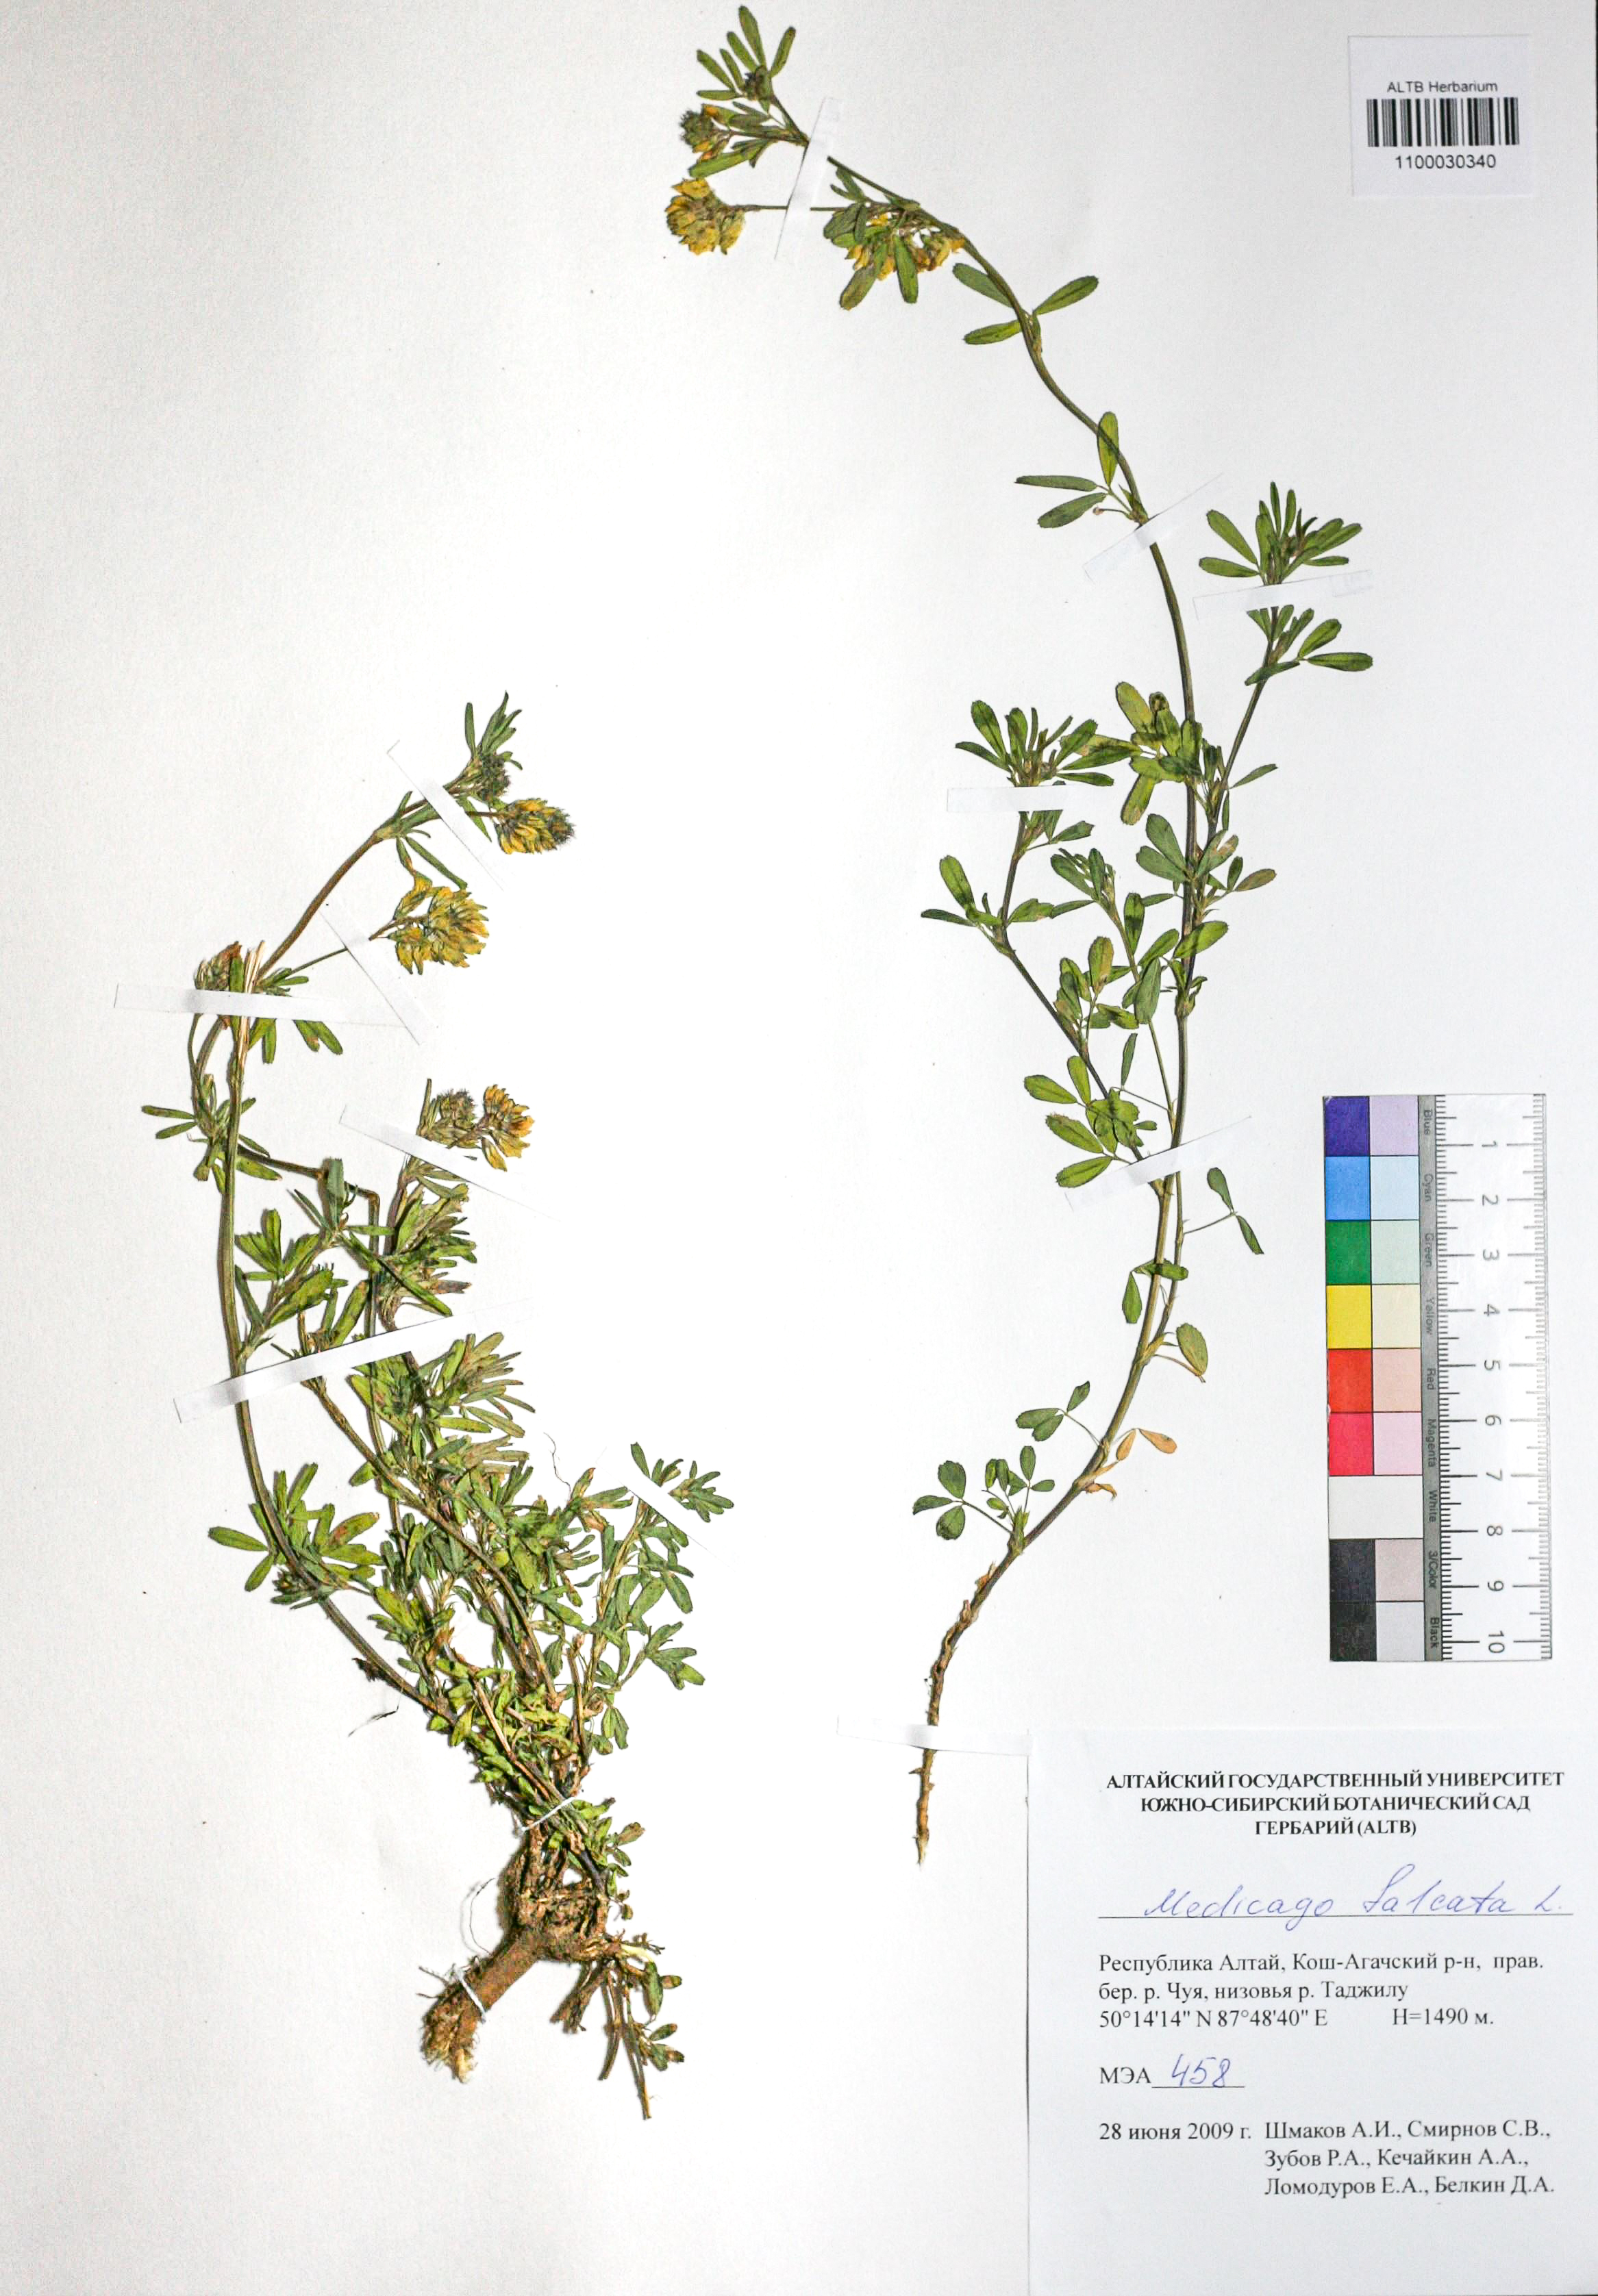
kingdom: Plantae
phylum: Tracheophyta
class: Magnoliopsida
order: Fabales
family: Fabaceae
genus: Medicago
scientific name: Medicago falcata
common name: Sickle medick
